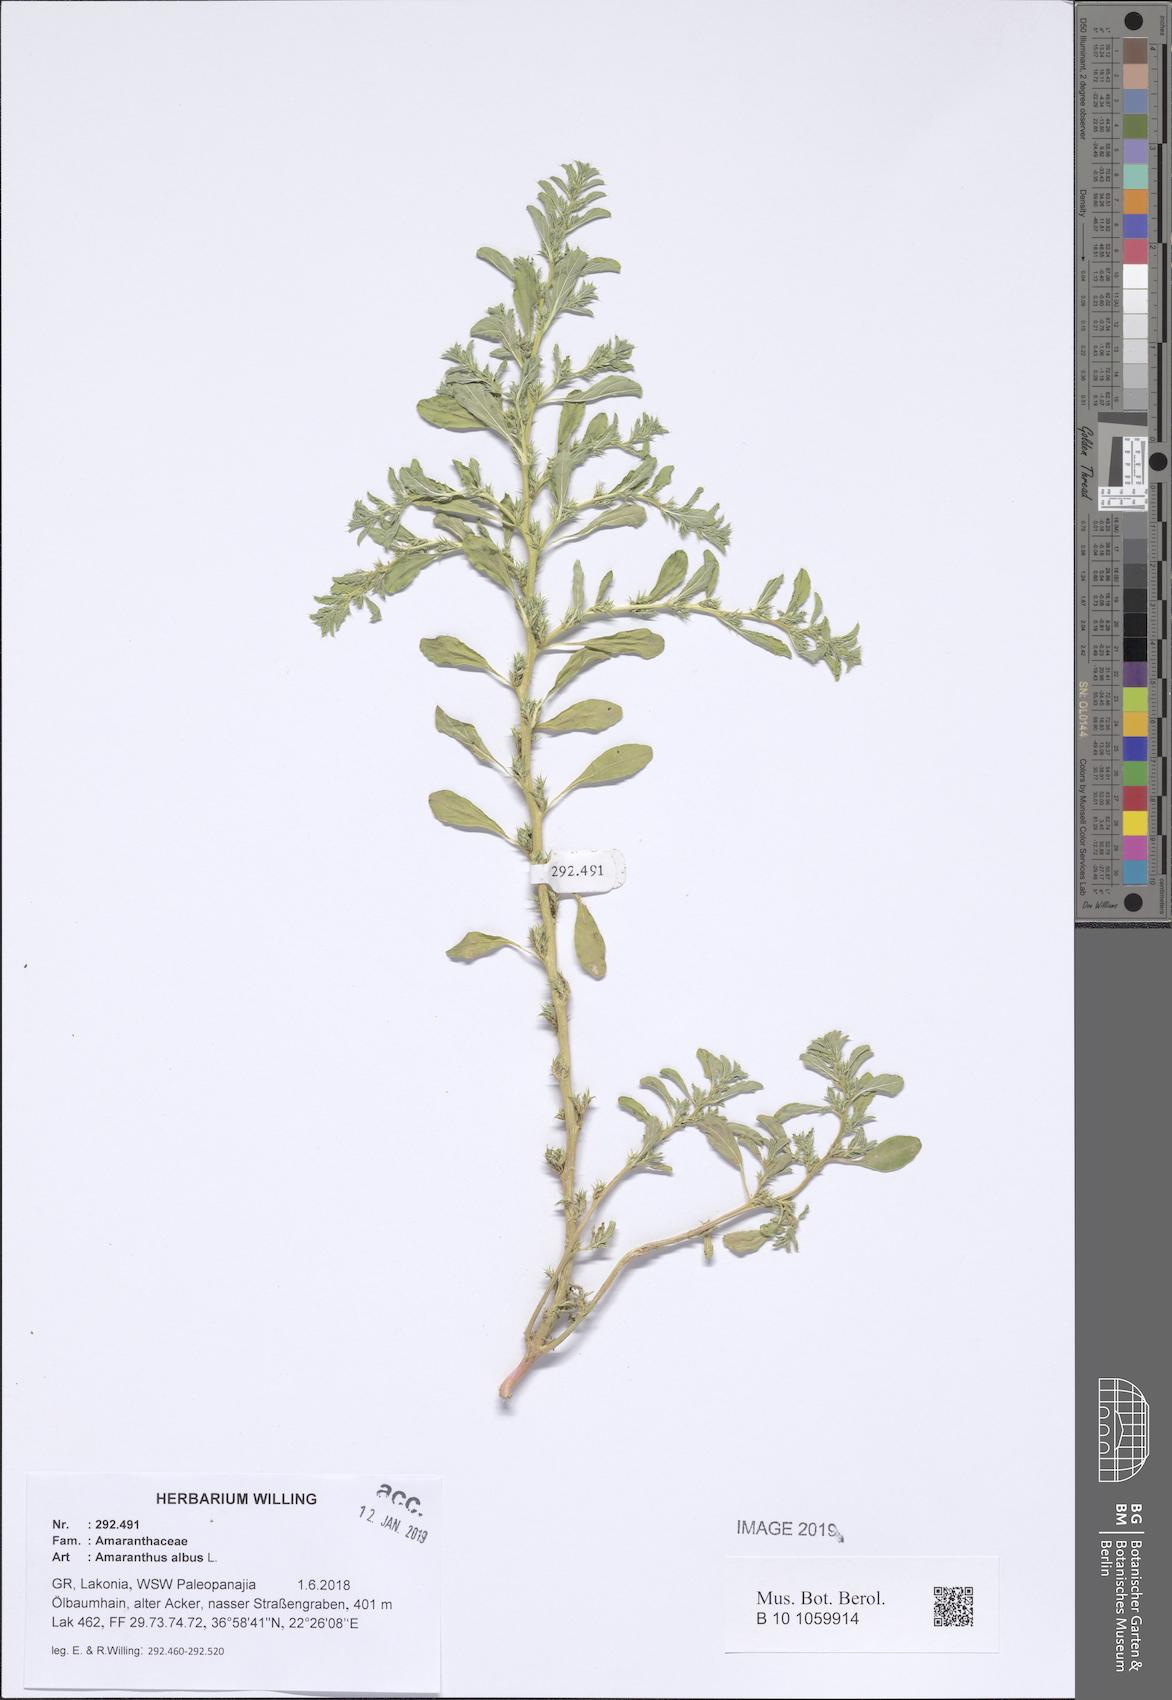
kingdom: Plantae
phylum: Tracheophyta
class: Magnoliopsida
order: Caryophyllales
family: Amaranthaceae
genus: Amaranthus
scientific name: Amaranthus albus
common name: White pigweed
